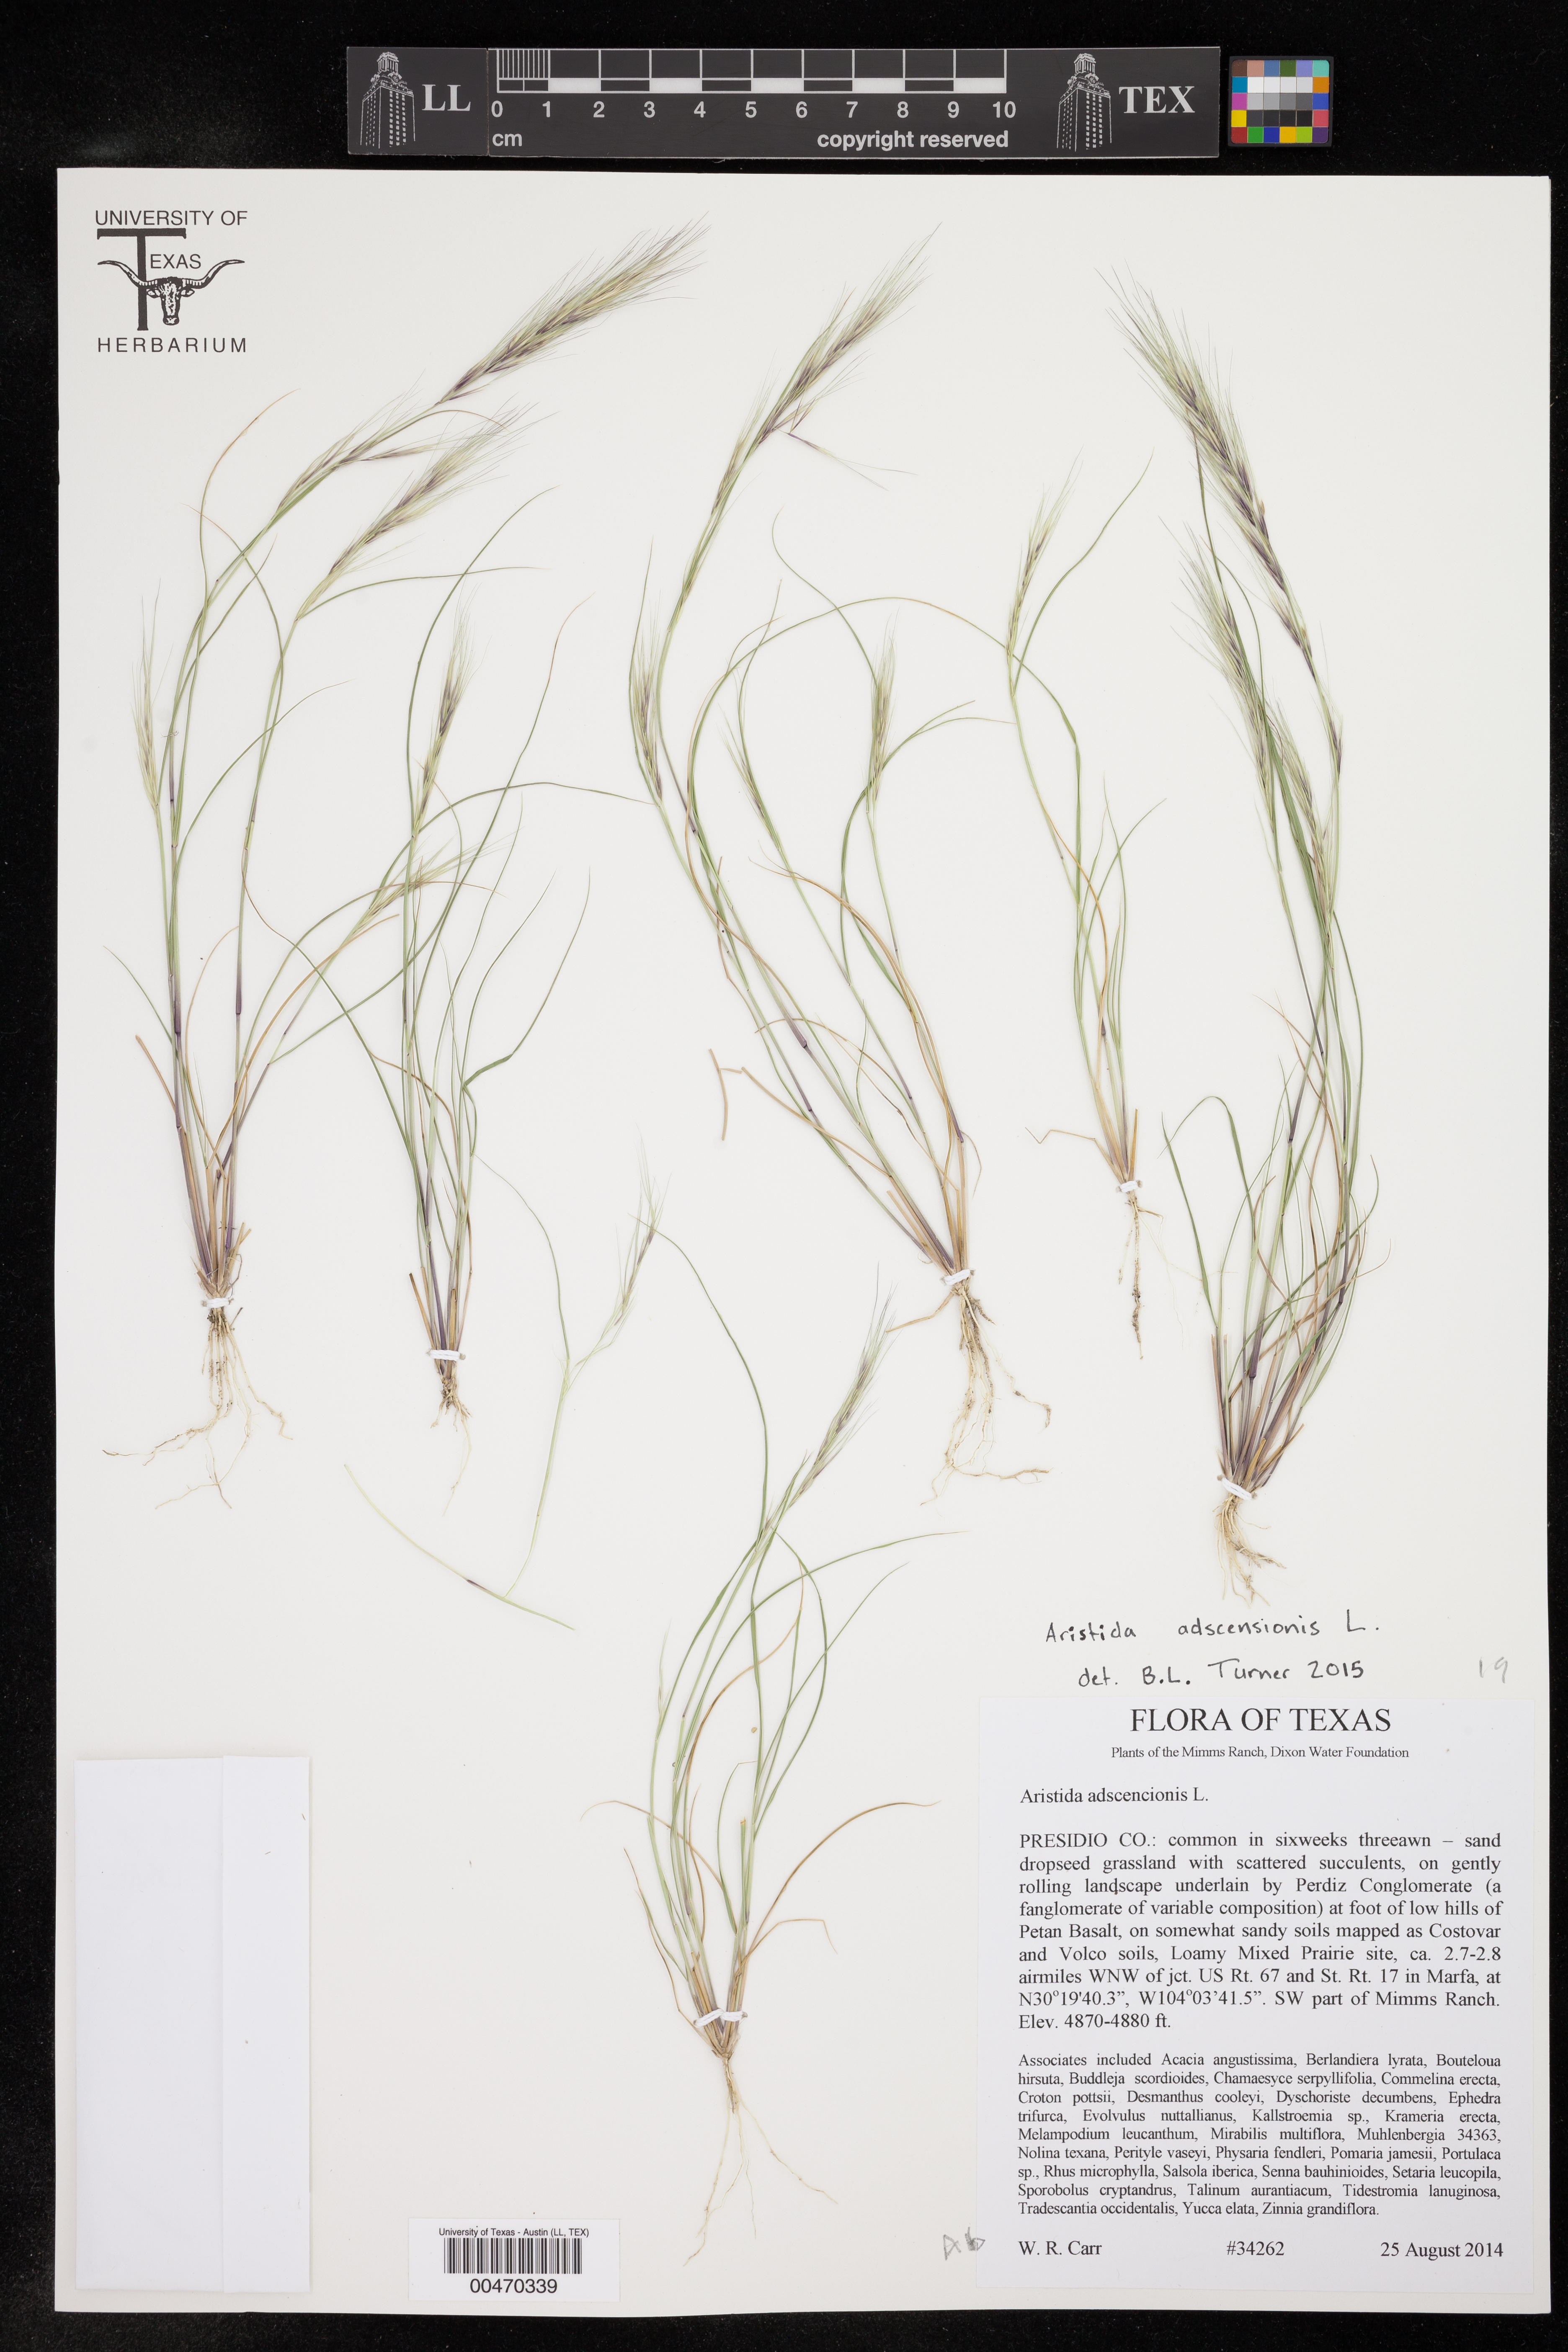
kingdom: Plantae
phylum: Tracheophyta
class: Liliopsida
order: Poales
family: Poaceae
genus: Aristida
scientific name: Aristida adscensionis
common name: Sixweeks threeawn
